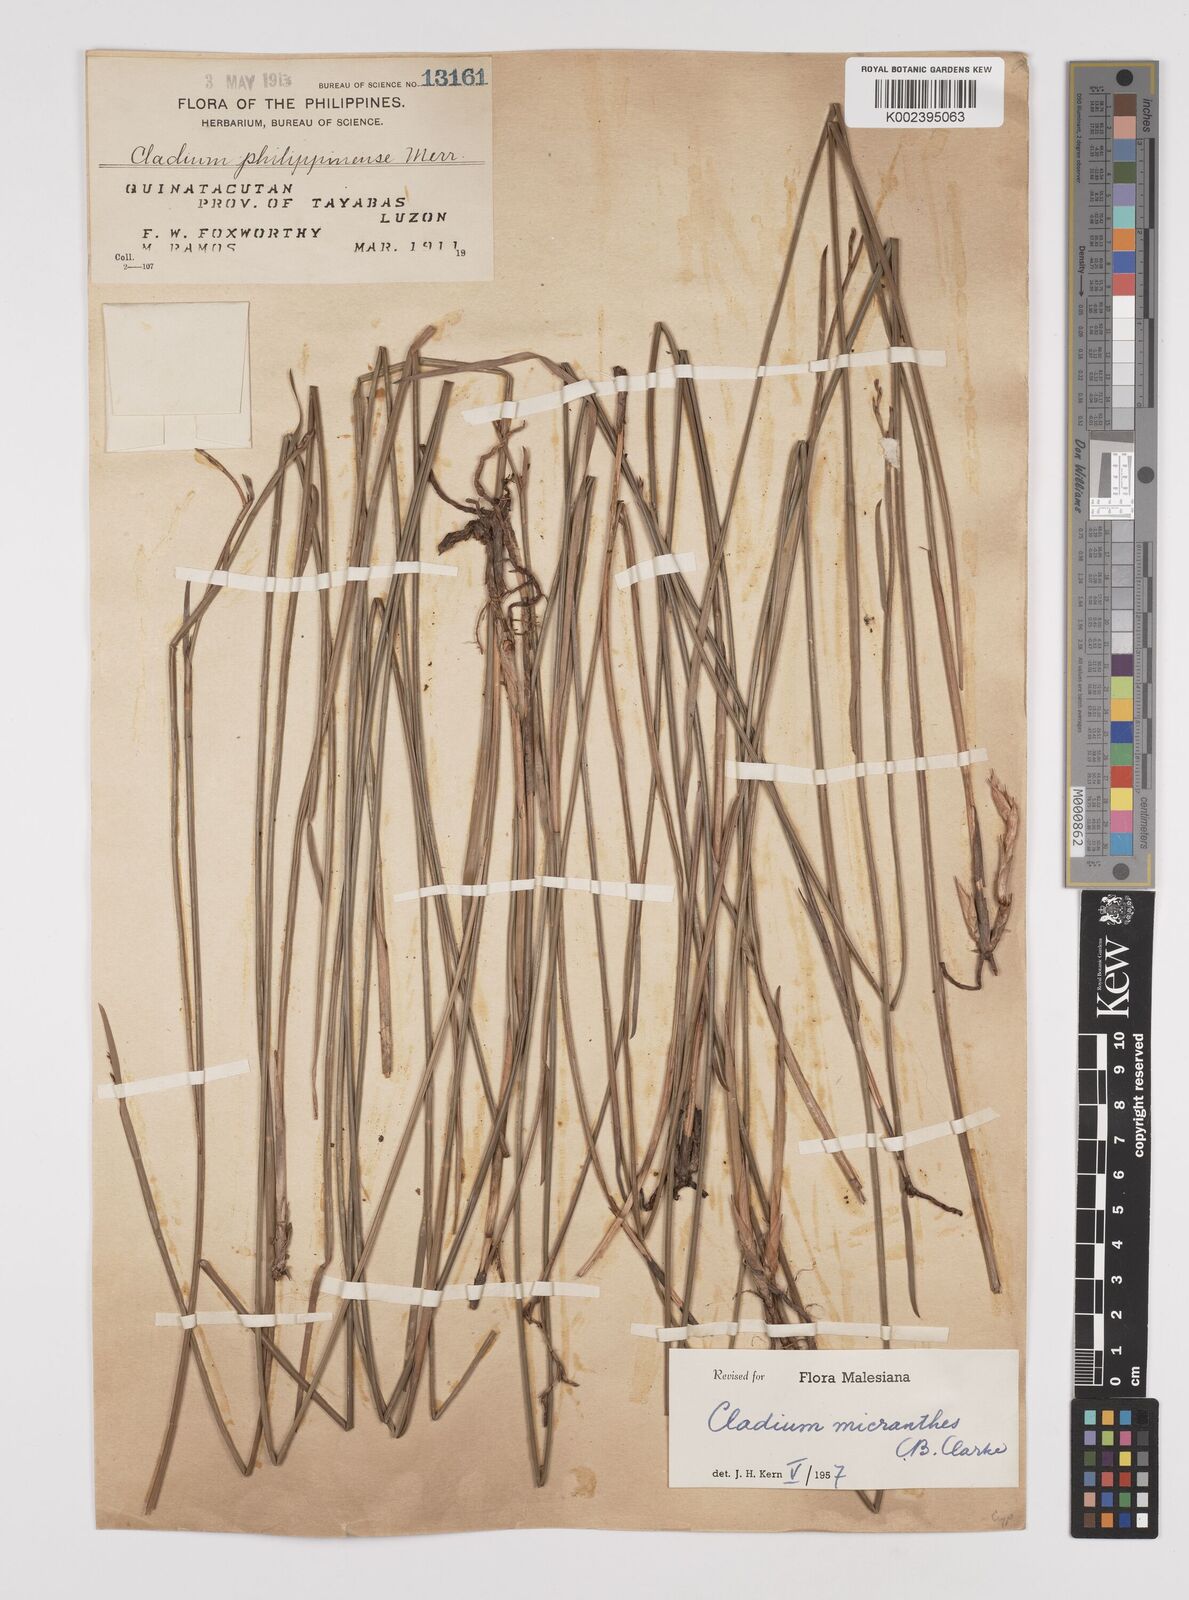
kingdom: Plantae
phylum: Tracheophyta
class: Liliopsida
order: Poales
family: Cyperaceae
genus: Machaerina
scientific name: Machaerina disticha
